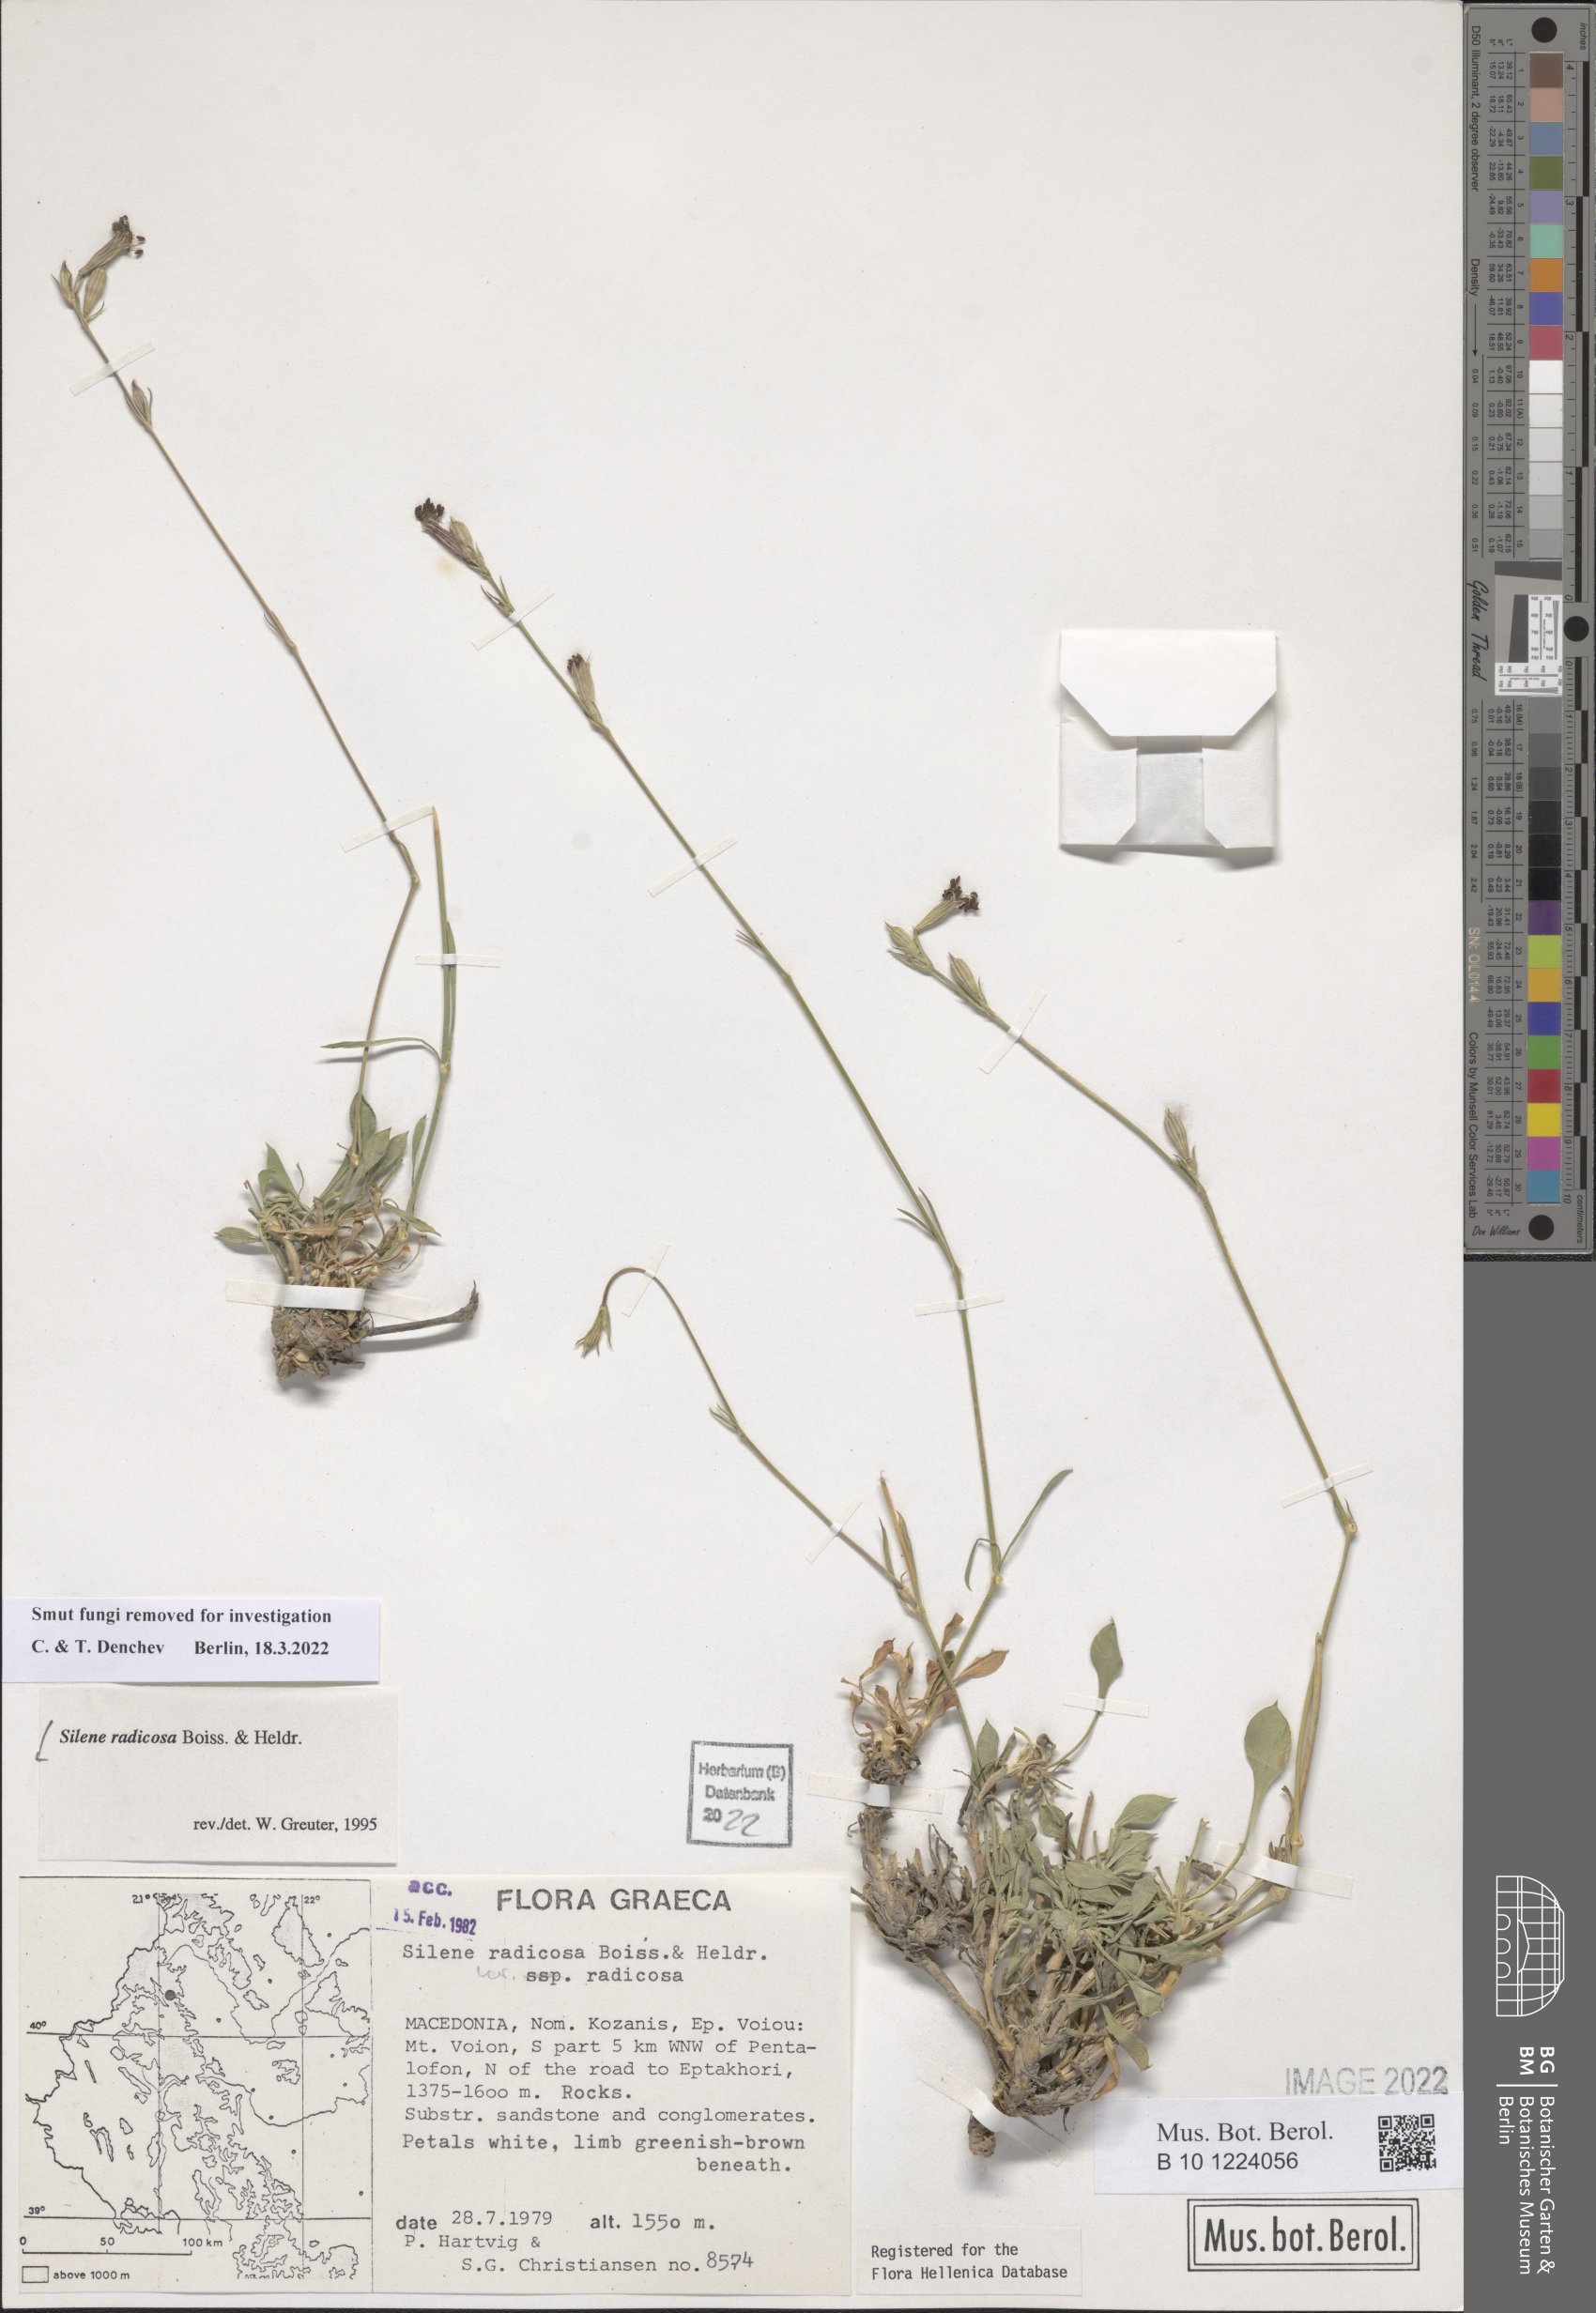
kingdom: Plantae
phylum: Tracheophyta
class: Magnoliopsida
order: Caryophyllales
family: Caryophyllaceae
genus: Silene
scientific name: Silene radicosa
